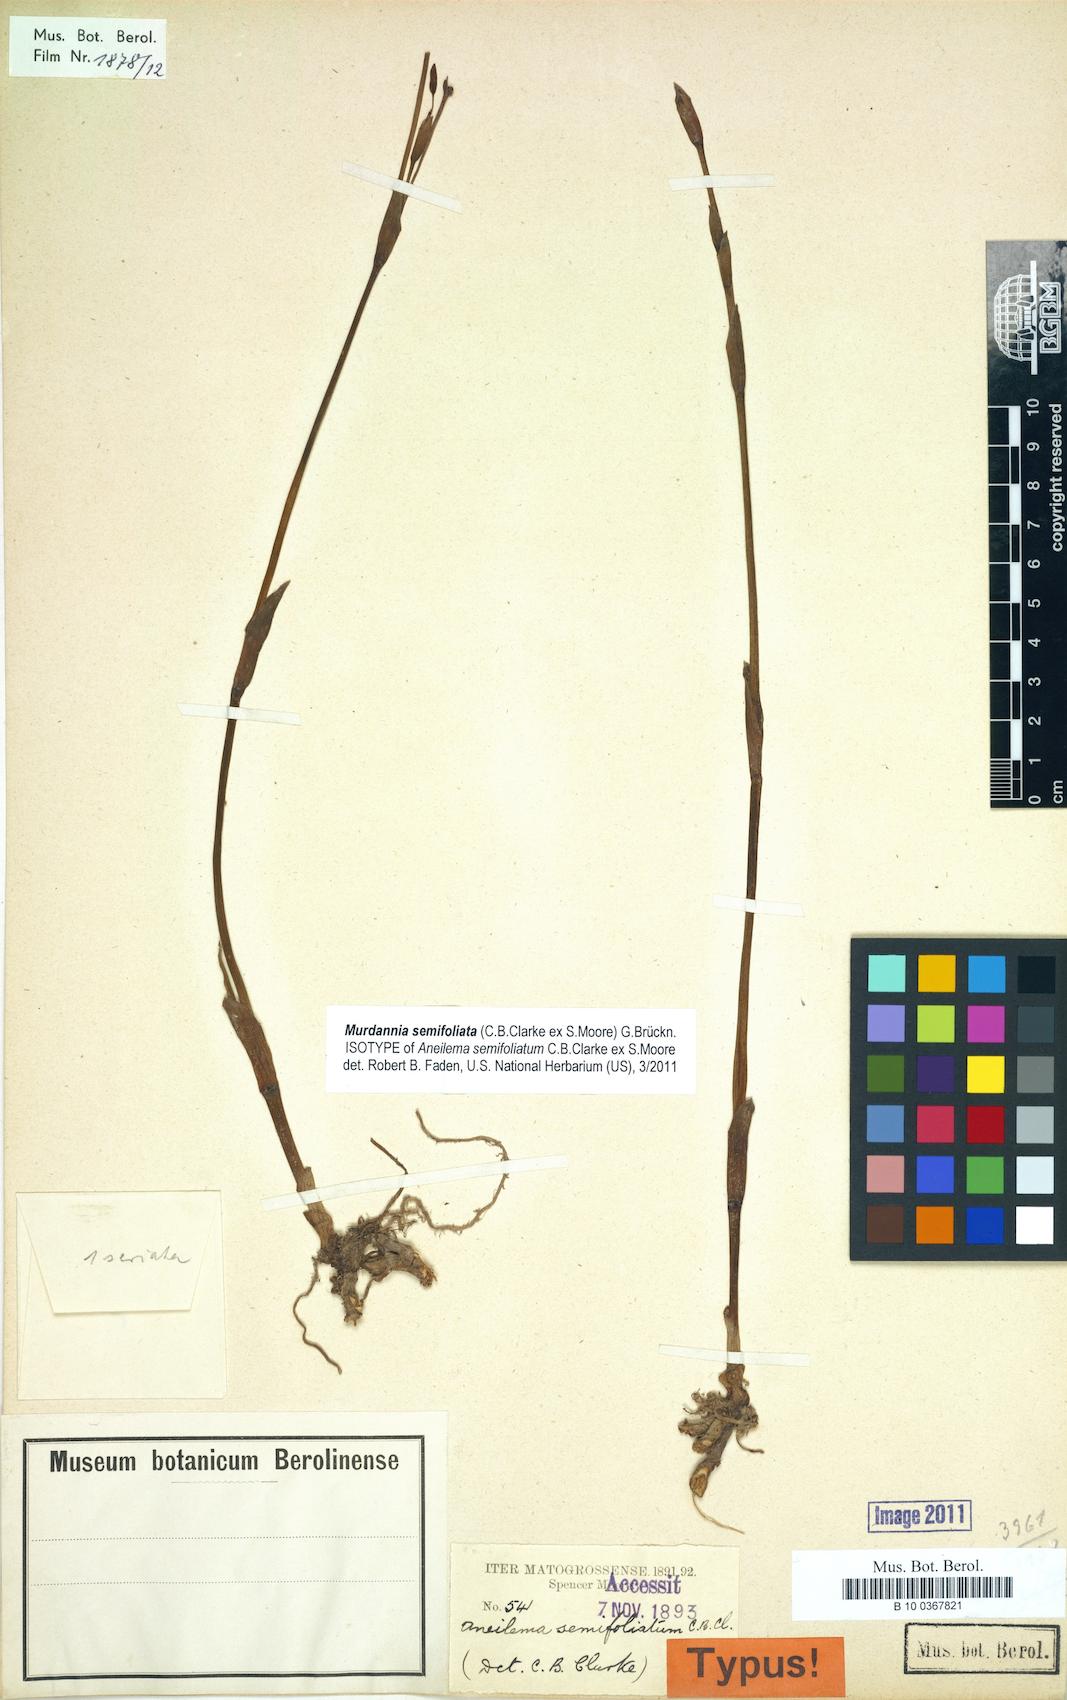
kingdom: Plantae
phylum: Tracheophyta
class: Liliopsida
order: Commelinales
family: Commelinaceae
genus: Murdannia
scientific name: Murdannia semifoliata
